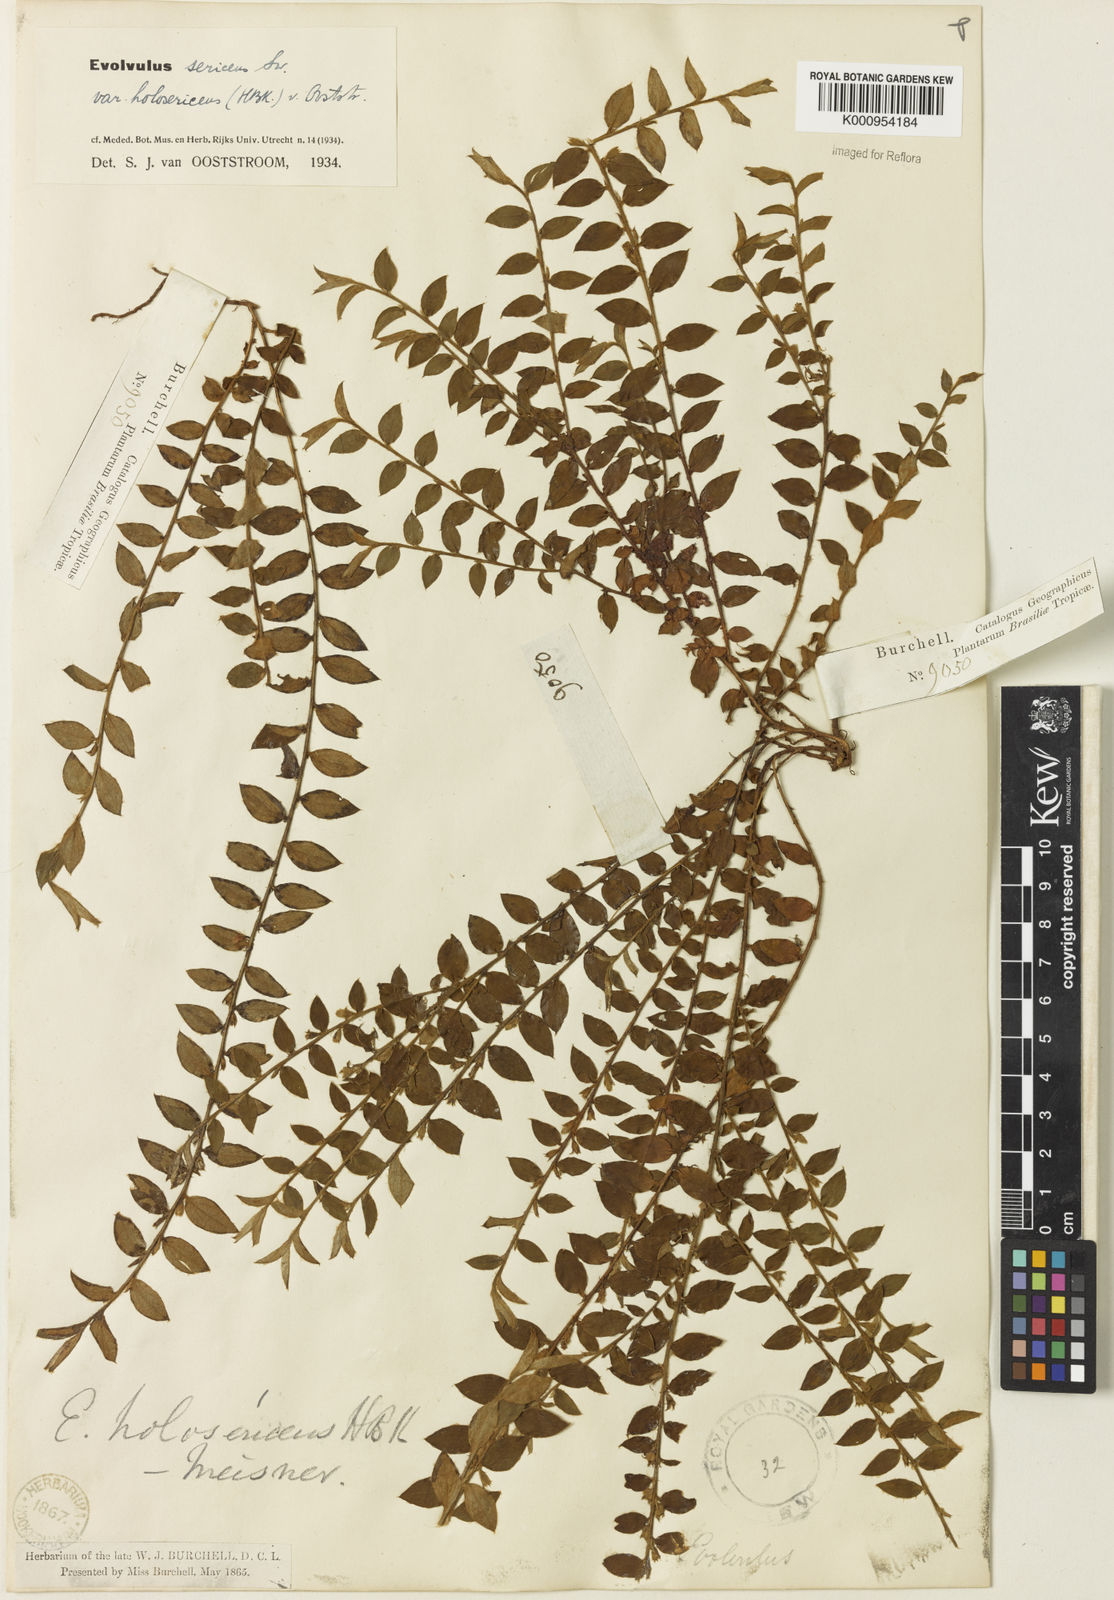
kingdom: Plantae
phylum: Tracheophyta
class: Magnoliopsida
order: Solanales
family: Convolvulaceae
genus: Evolvulus
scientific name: Evolvulus sericeus
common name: Blue dots
